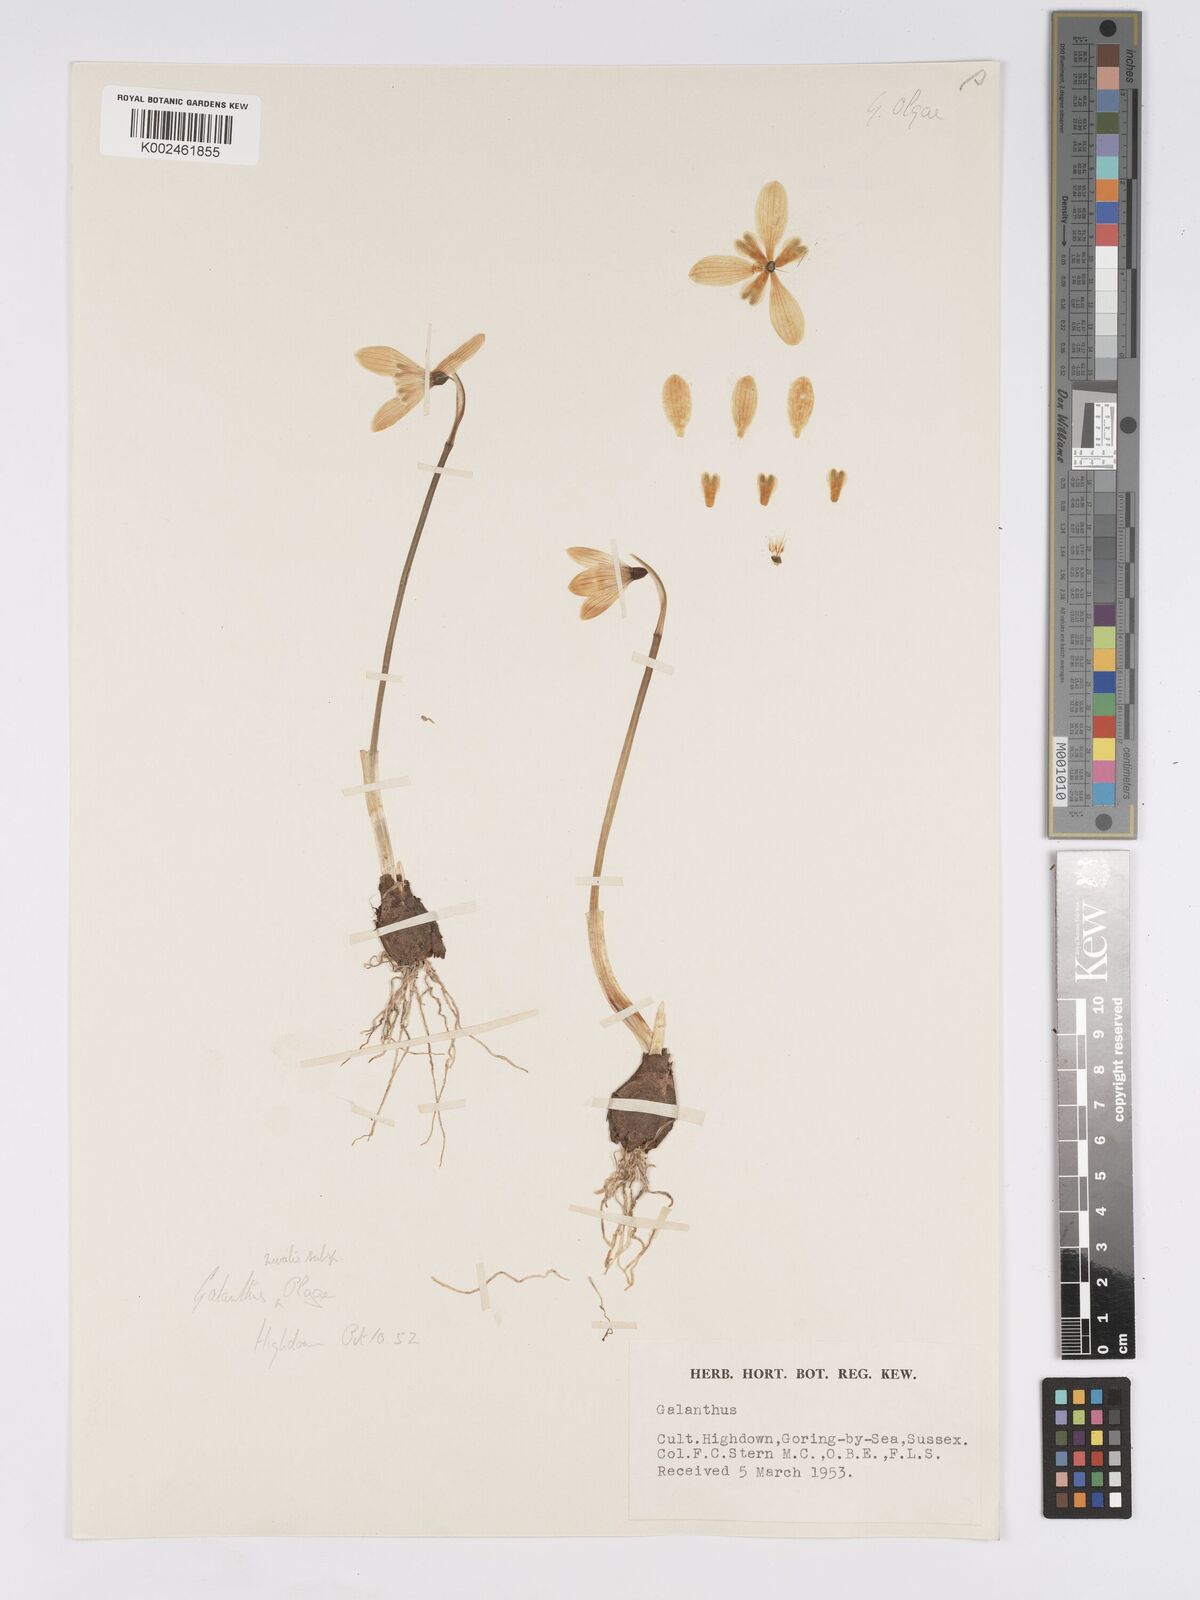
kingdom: Plantae
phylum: Tracheophyta
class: Liliopsida
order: Asparagales
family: Amaryllidaceae
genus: Galanthus
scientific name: Galanthus reginae-olgae
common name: Queen olga's snowdrop
